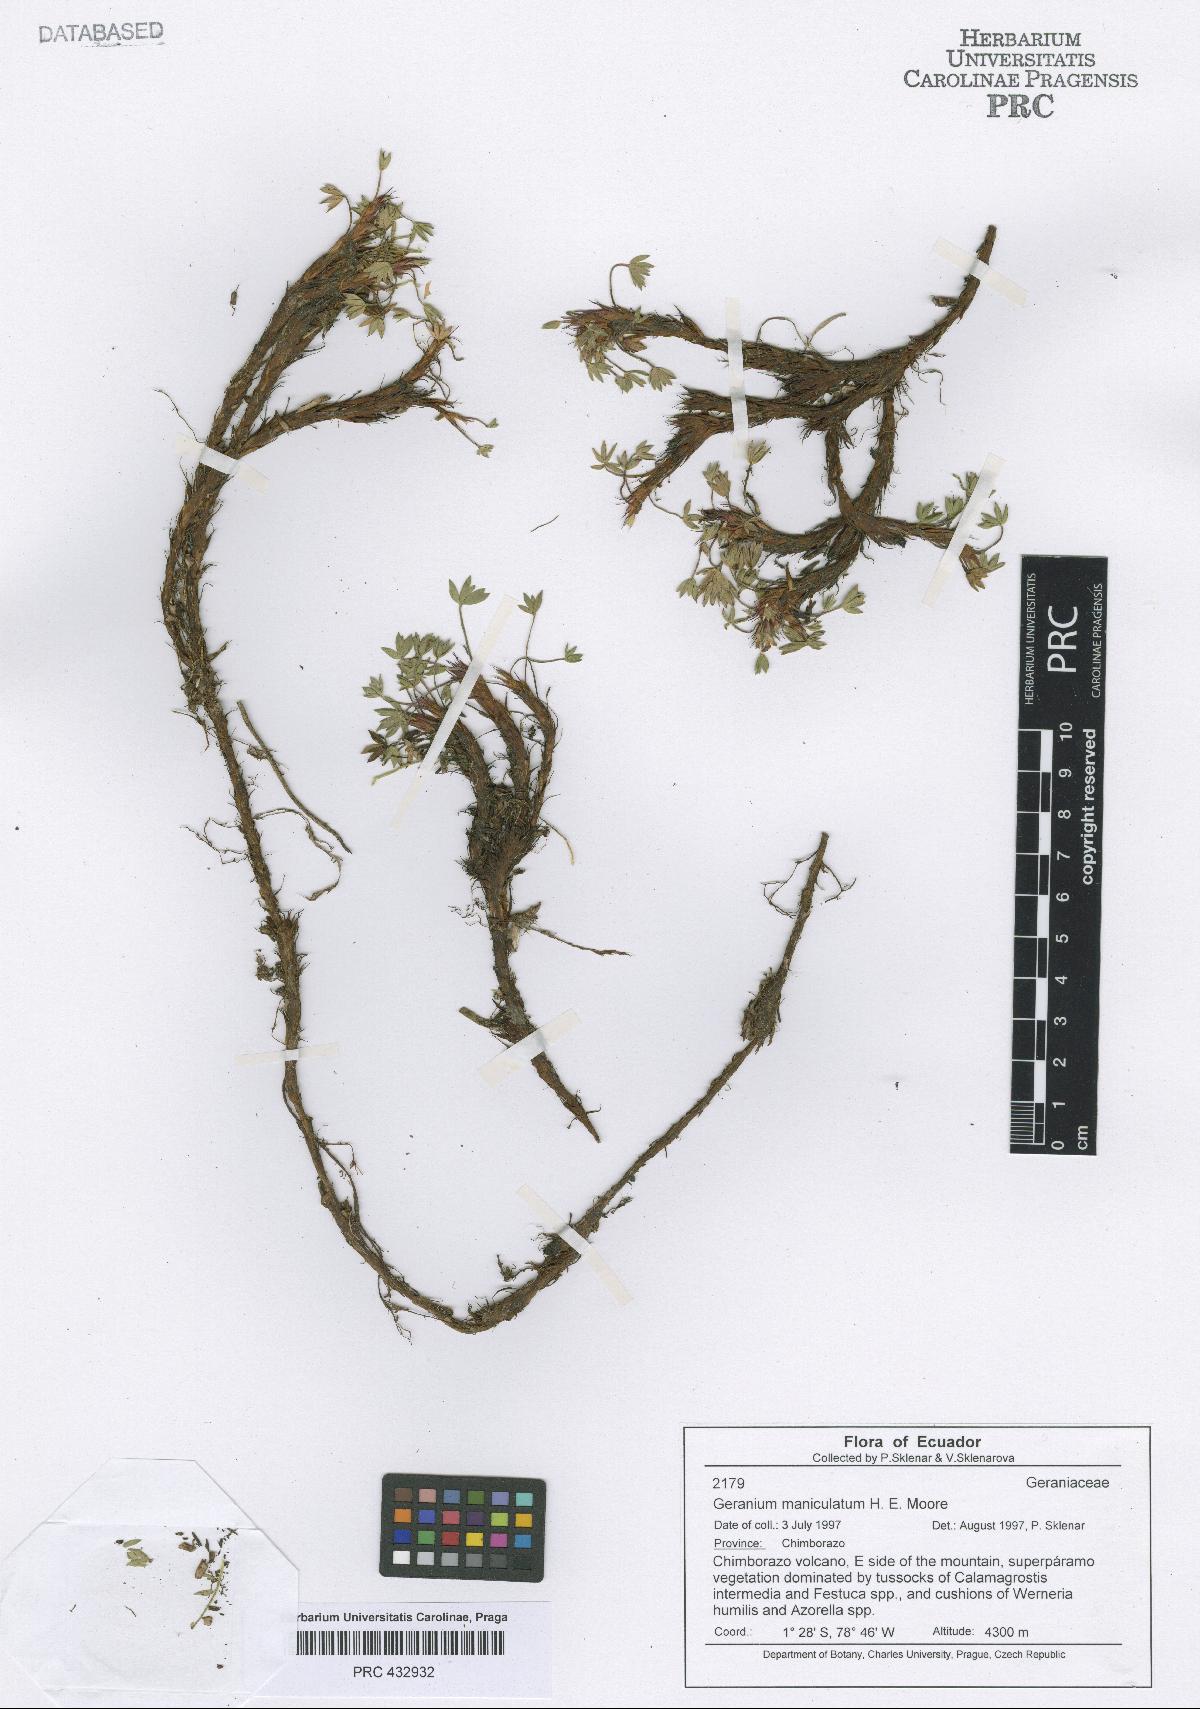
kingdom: Plantae
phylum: Tracheophyta
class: Magnoliopsida
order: Geraniales
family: Geraniaceae
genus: Geranium
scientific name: Geranium maniculatum
